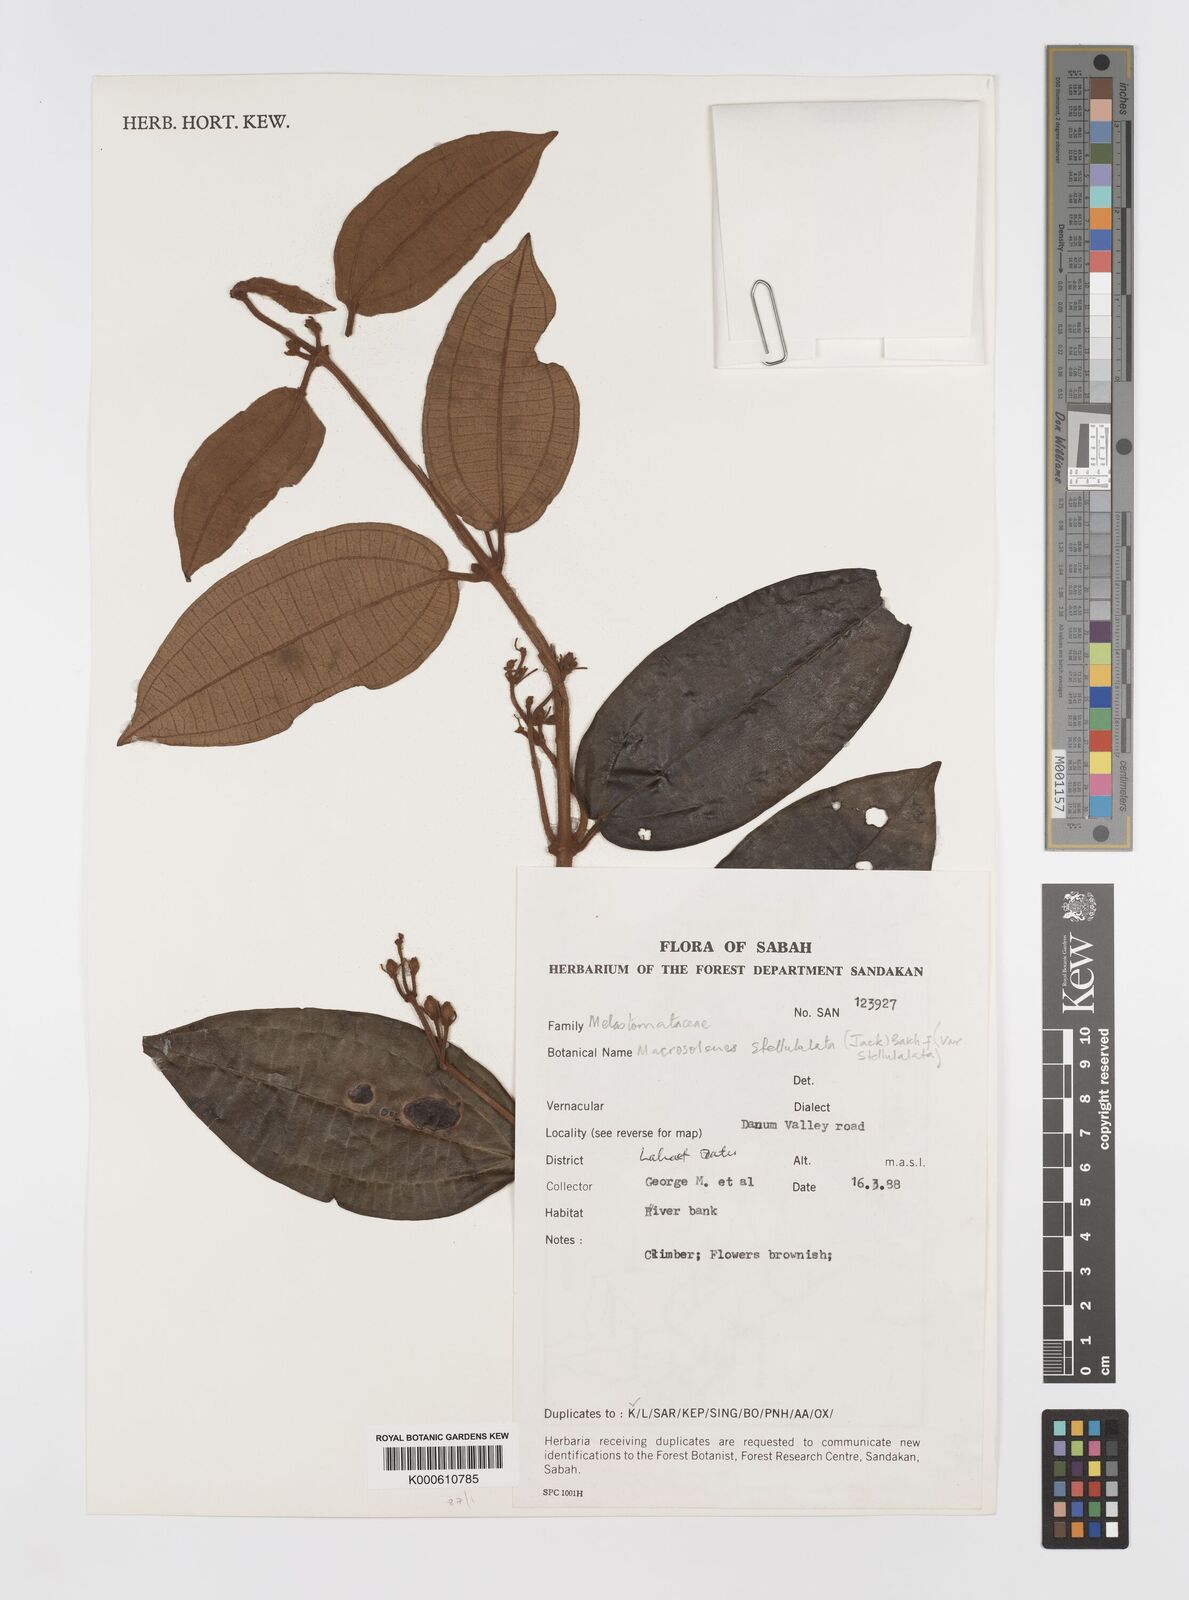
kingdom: Plantae
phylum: Tracheophyta
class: Magnoliopsida
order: Myrtales
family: Melastomataceae
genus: Macrolenes
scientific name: Macrolenes
